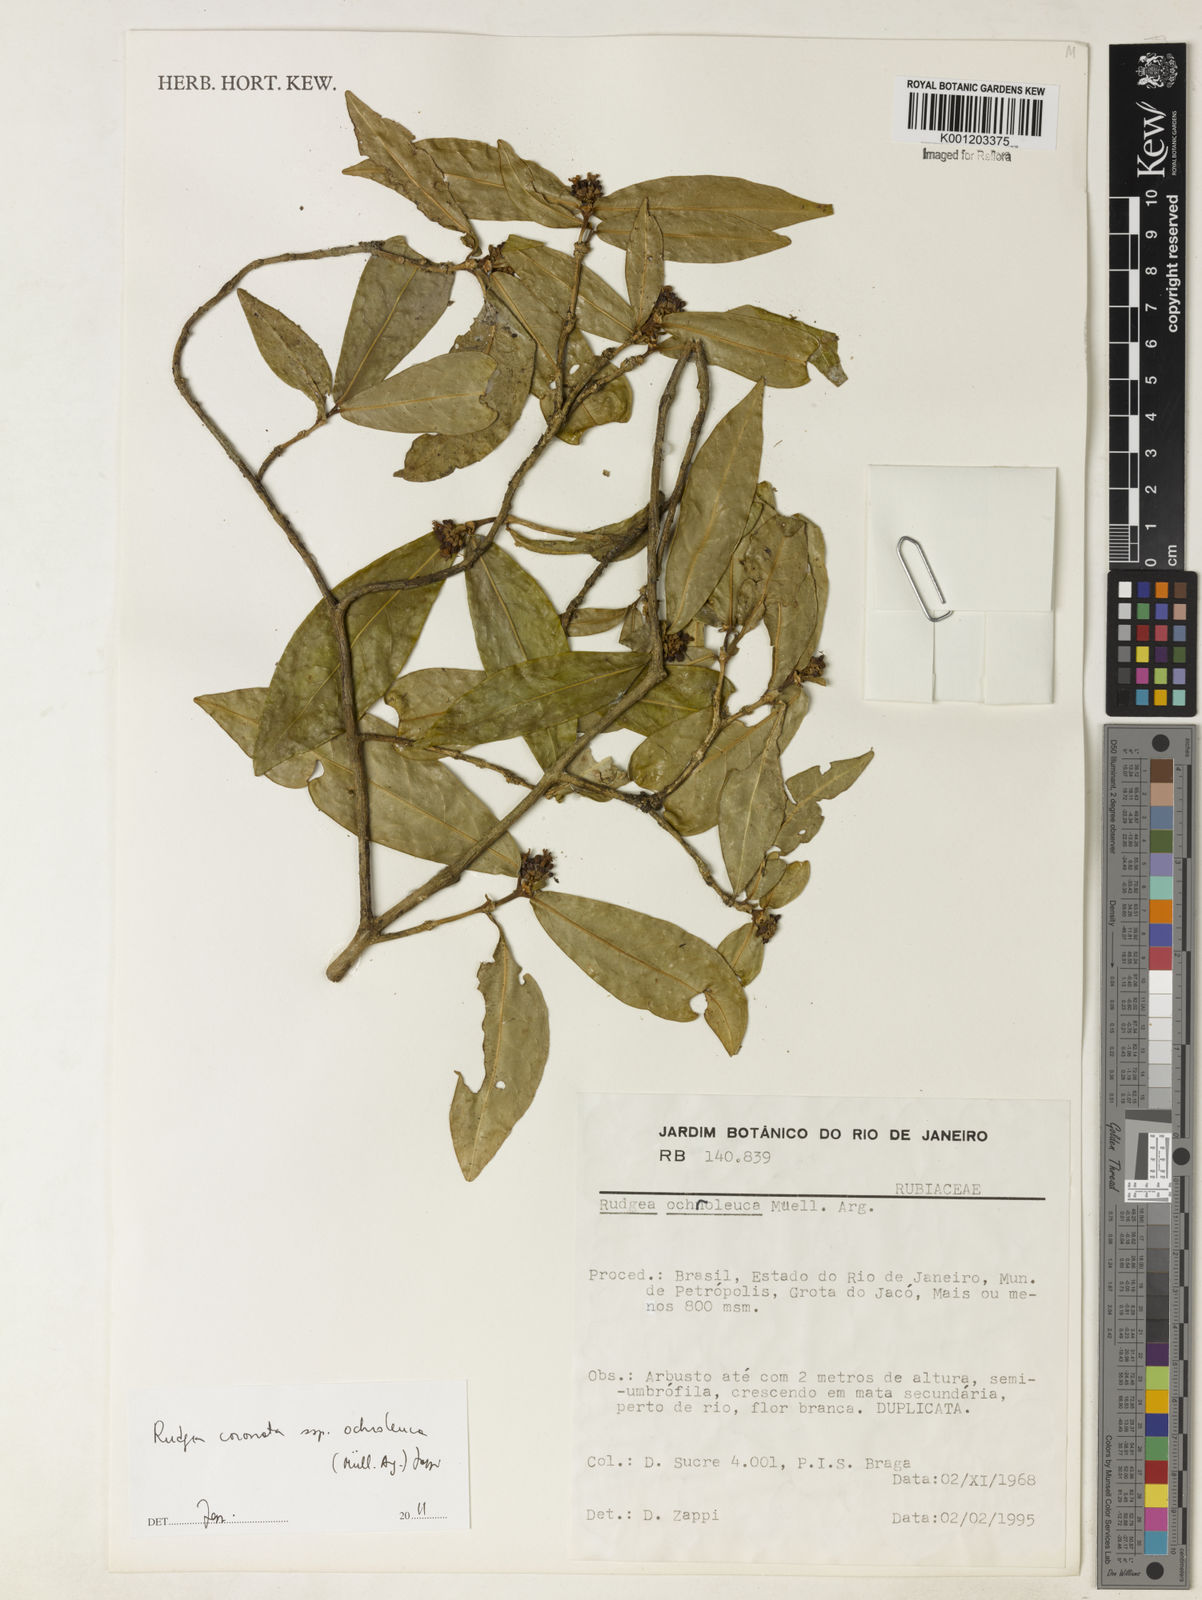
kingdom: Plantae
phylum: Tracheophyta
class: Magnoliopsida
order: Gentianales
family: Rubiaceae
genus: Rudgea
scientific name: Rudgea
